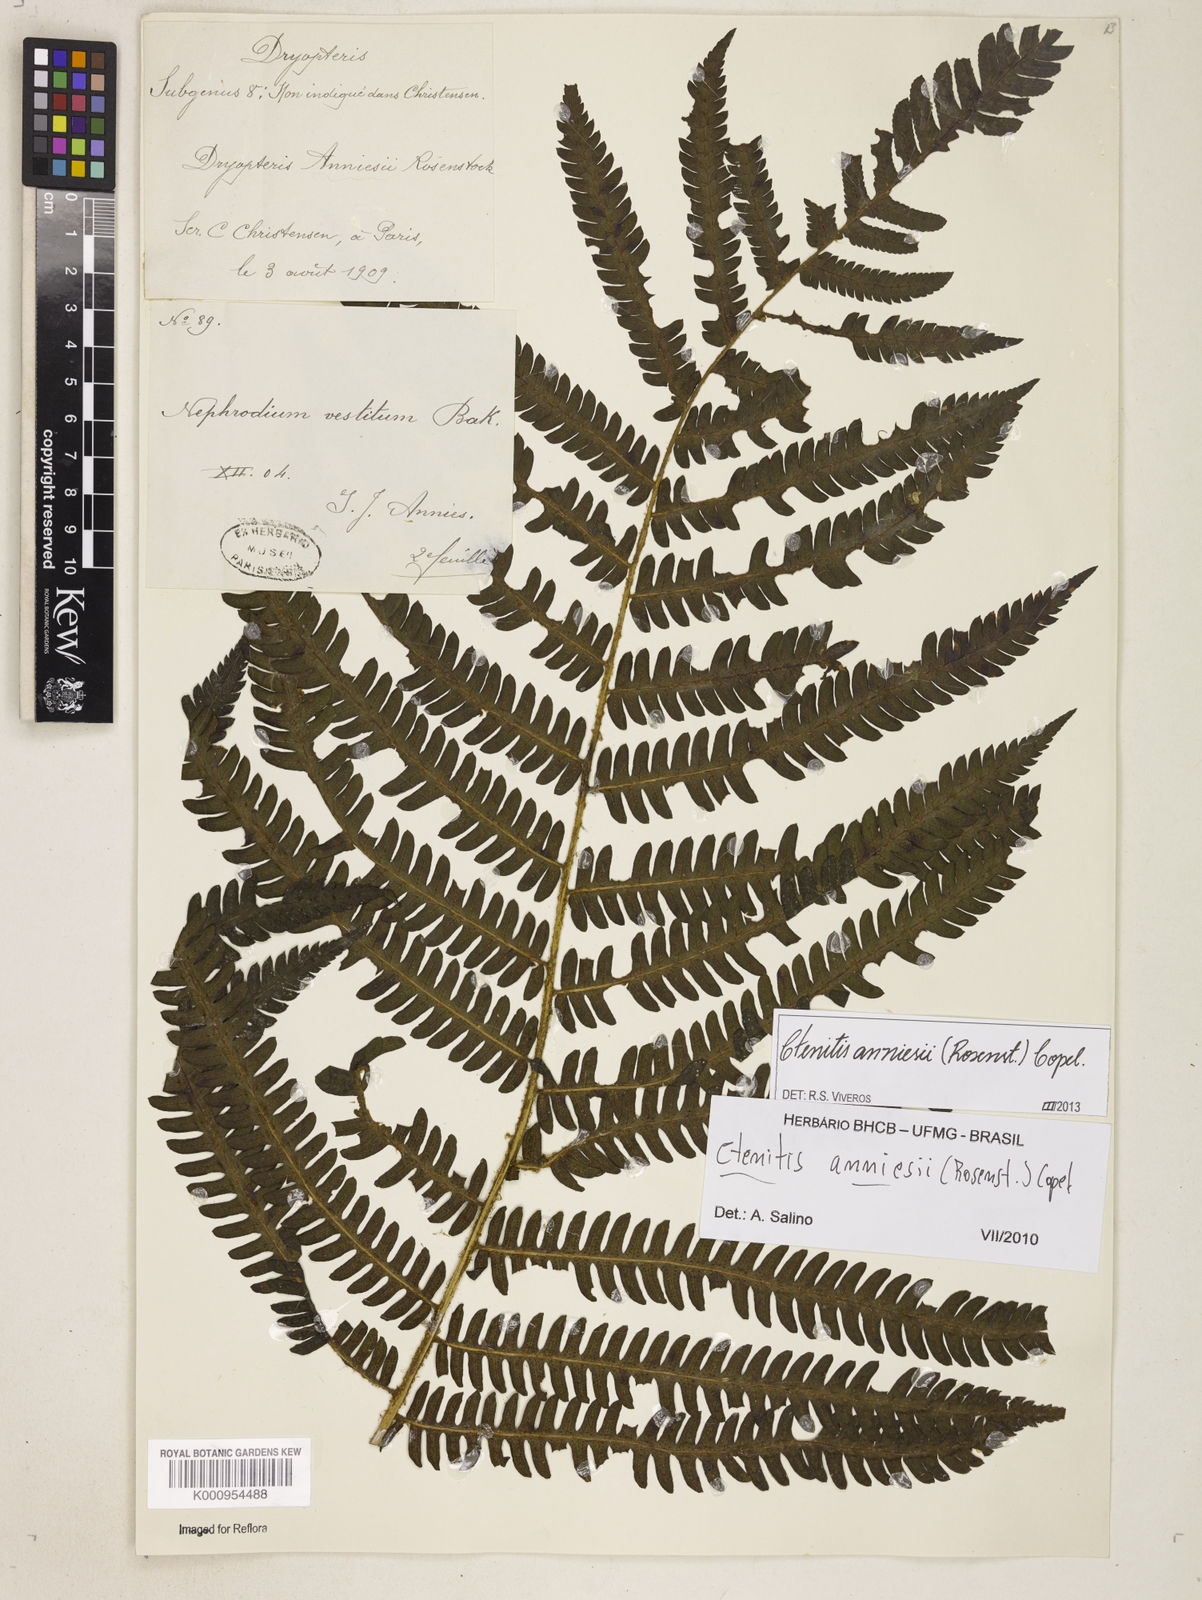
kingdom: Plantae
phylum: Tracheophyta
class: Polypodiopsida
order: Polypodiales
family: Dryopteridaceae
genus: Ctenitis
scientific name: Ctenitis anniesii
